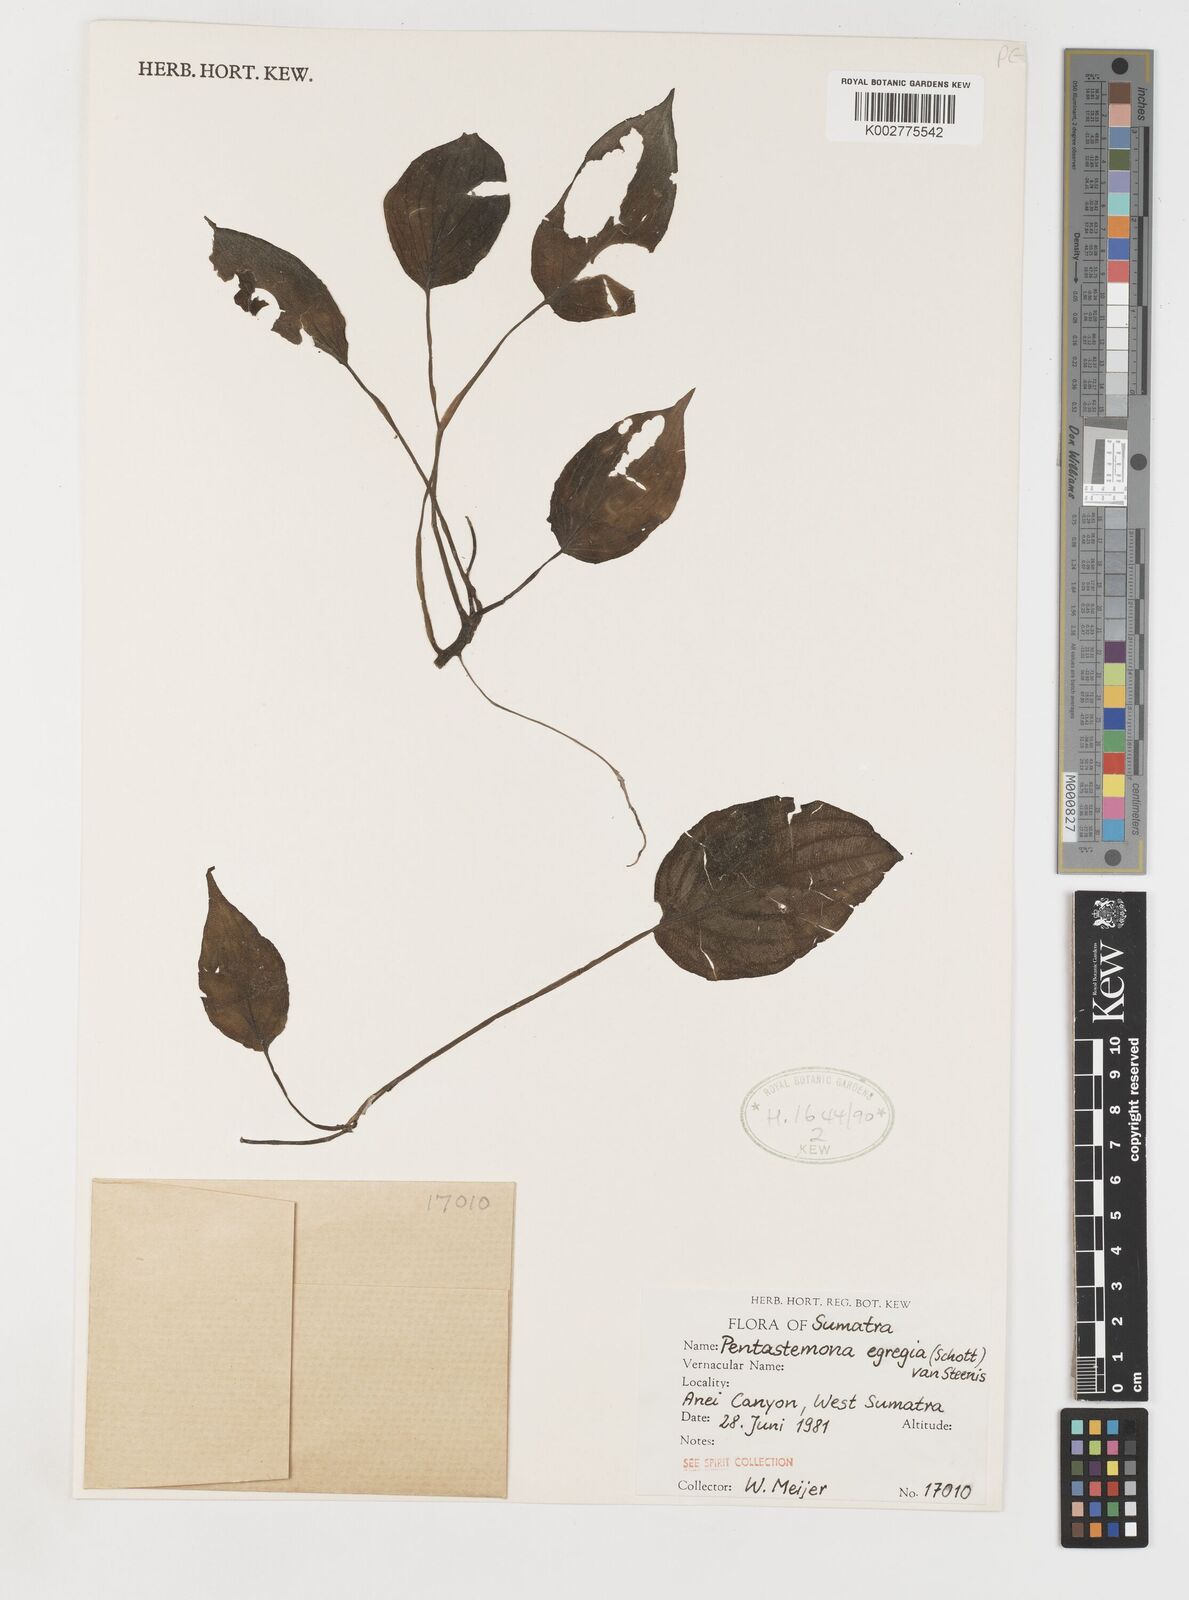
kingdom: Plantae
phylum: Tracheophyta
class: Liliopsida
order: Pandanales
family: Stemonaceae
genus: Pentastemona
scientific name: Pentastemona egregia
